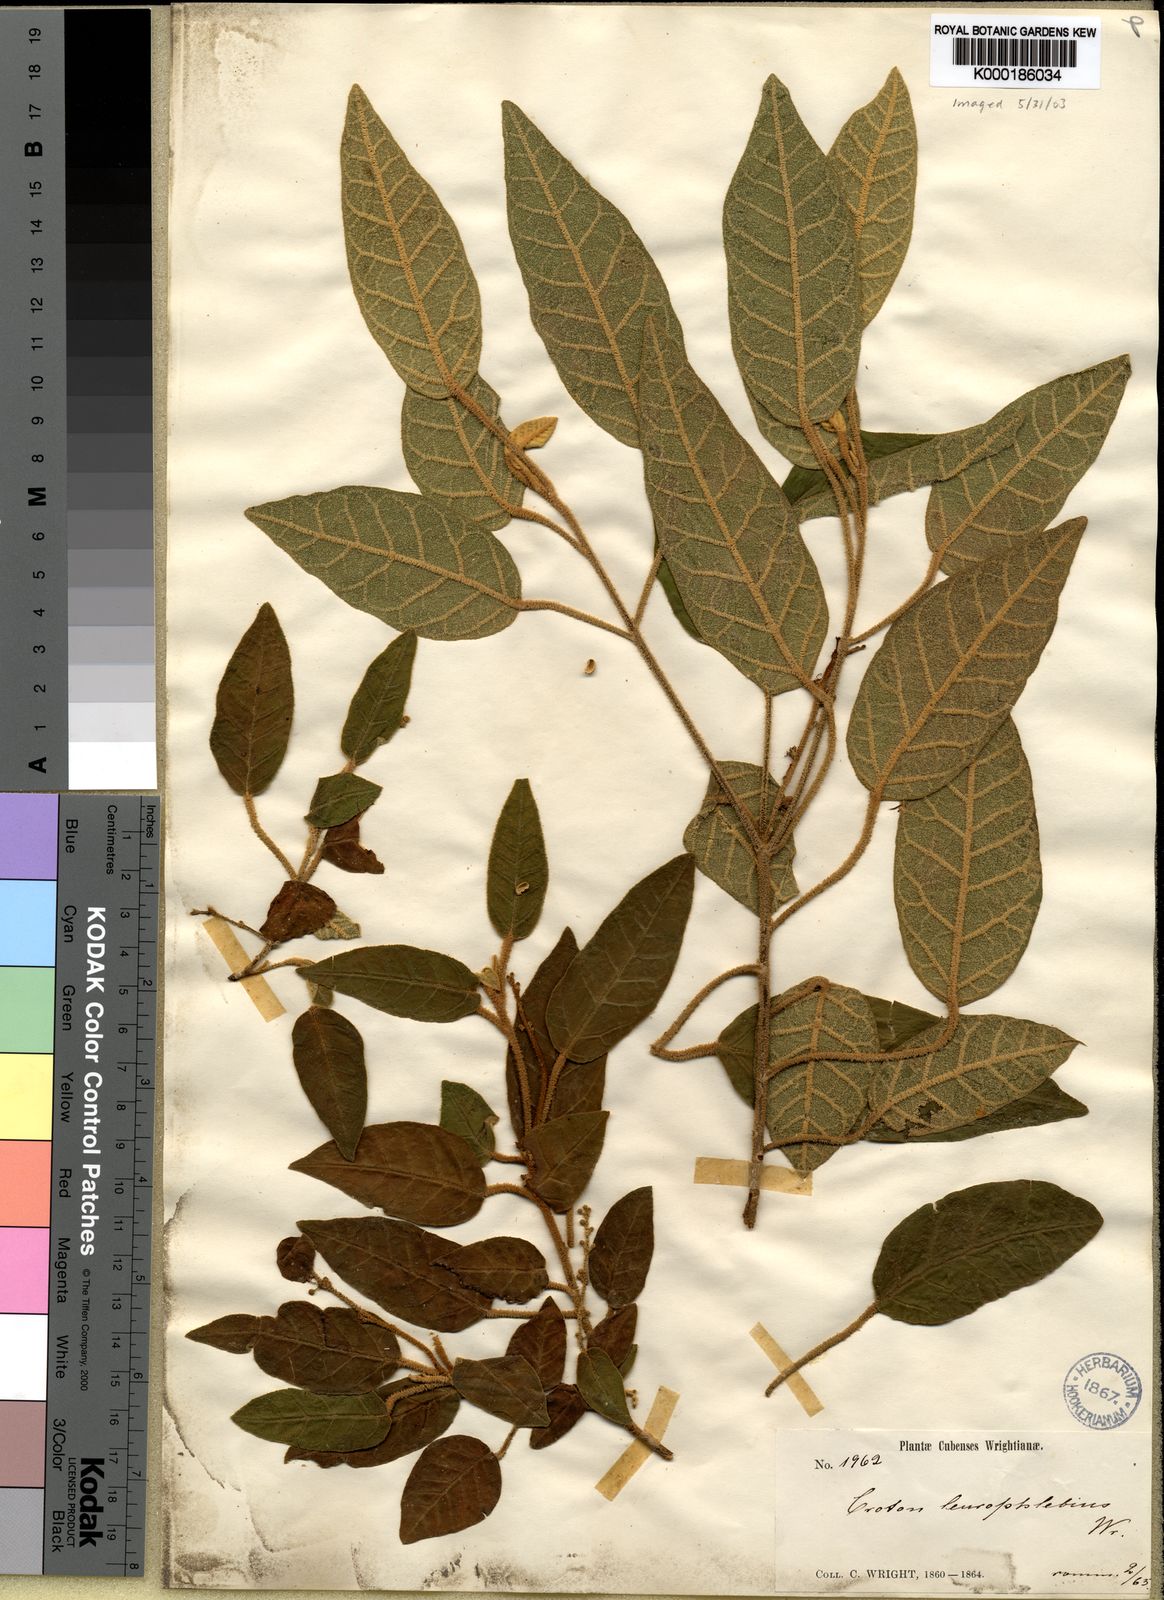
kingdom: Plantae
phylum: Tracheophyta
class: Magnoliopsida
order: Malpighiales
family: Euphorbiaceae
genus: Croton
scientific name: Croton leucophlebius
